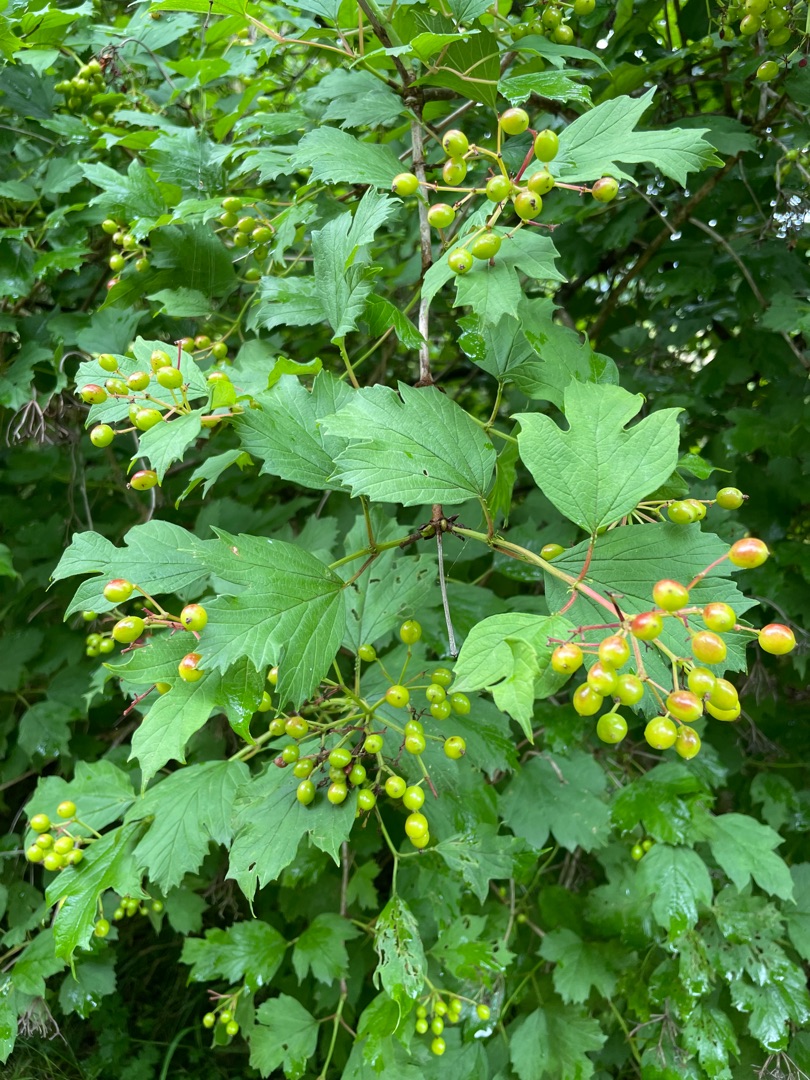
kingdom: Plantae
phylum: Tracheophyta
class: Magnoliopsida
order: Dipsacales
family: Viburnaceae
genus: Viburnum
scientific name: Viburnum opulus
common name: Kvalkved
